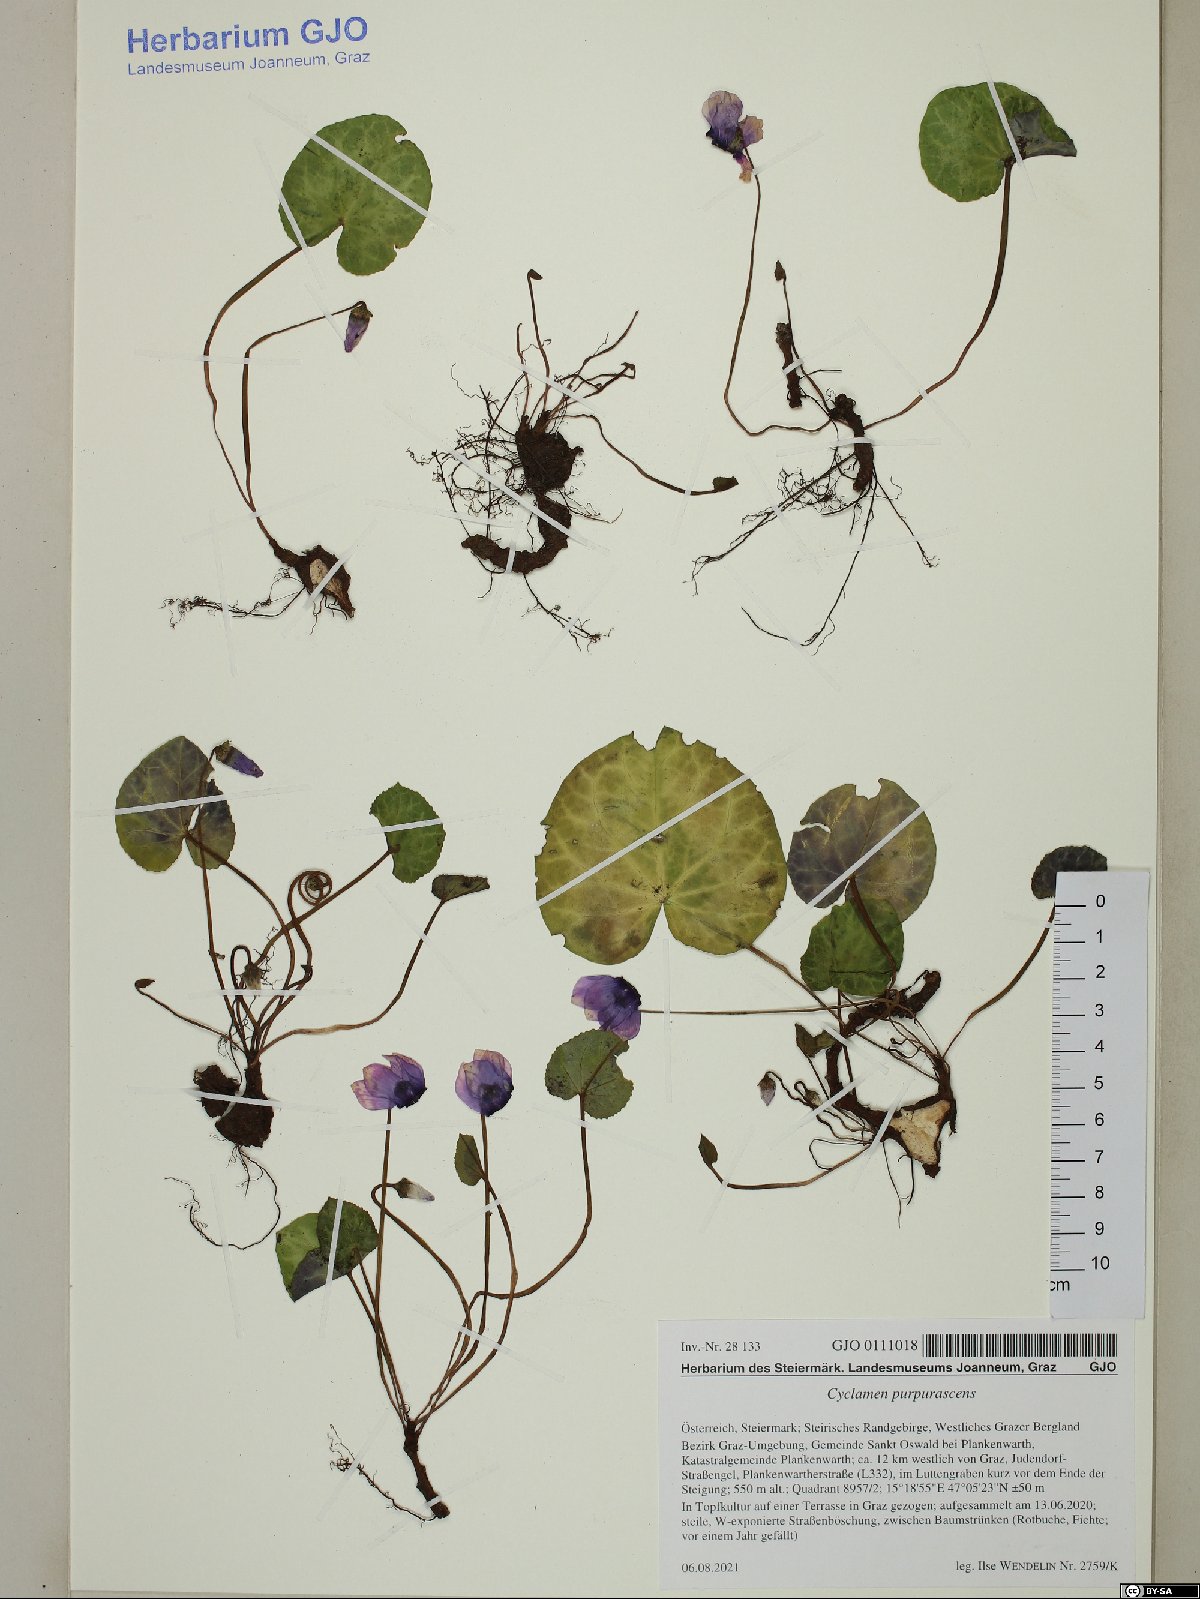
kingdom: Plantae
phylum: Tracheophyta
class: Magnoliopsida
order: Ericales
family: Primulaceae
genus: Cyclamen
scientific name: Cyclamen purpurascens
